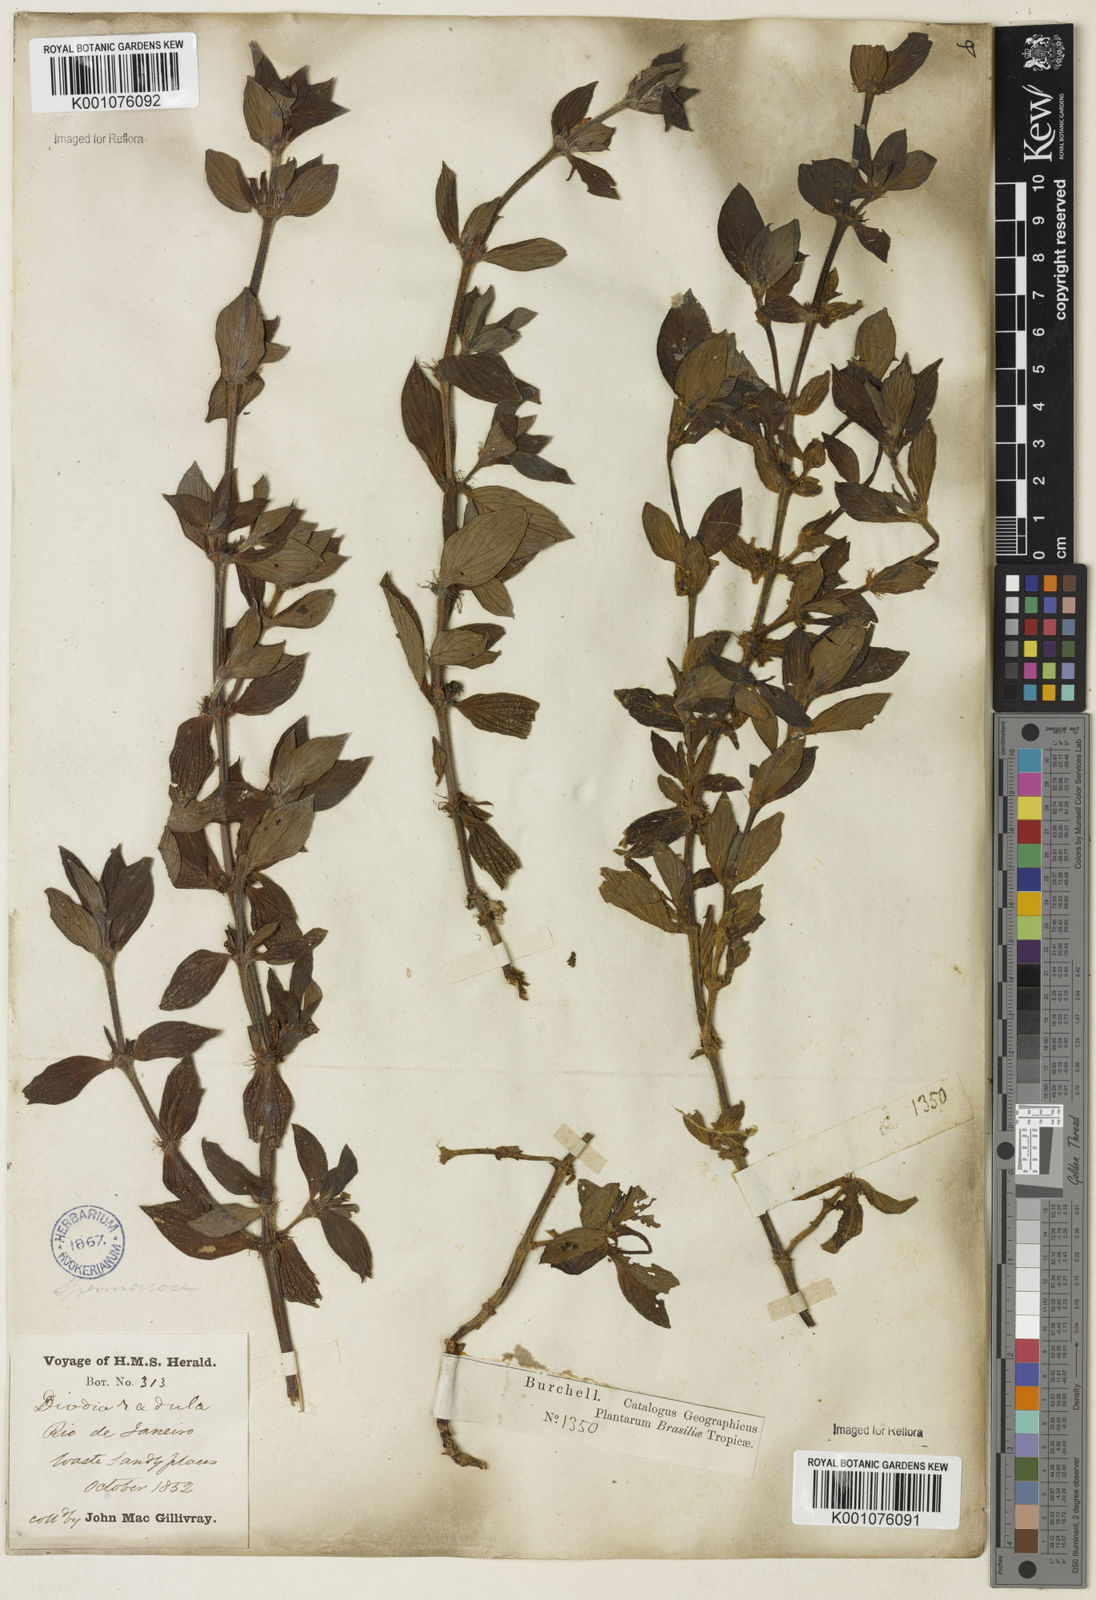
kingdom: Plantae
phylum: Tracheophyta
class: Magnoliopsida
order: Gentianales
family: Rubiaceae
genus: Hexasepalum
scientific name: Hexasepalum radulum
